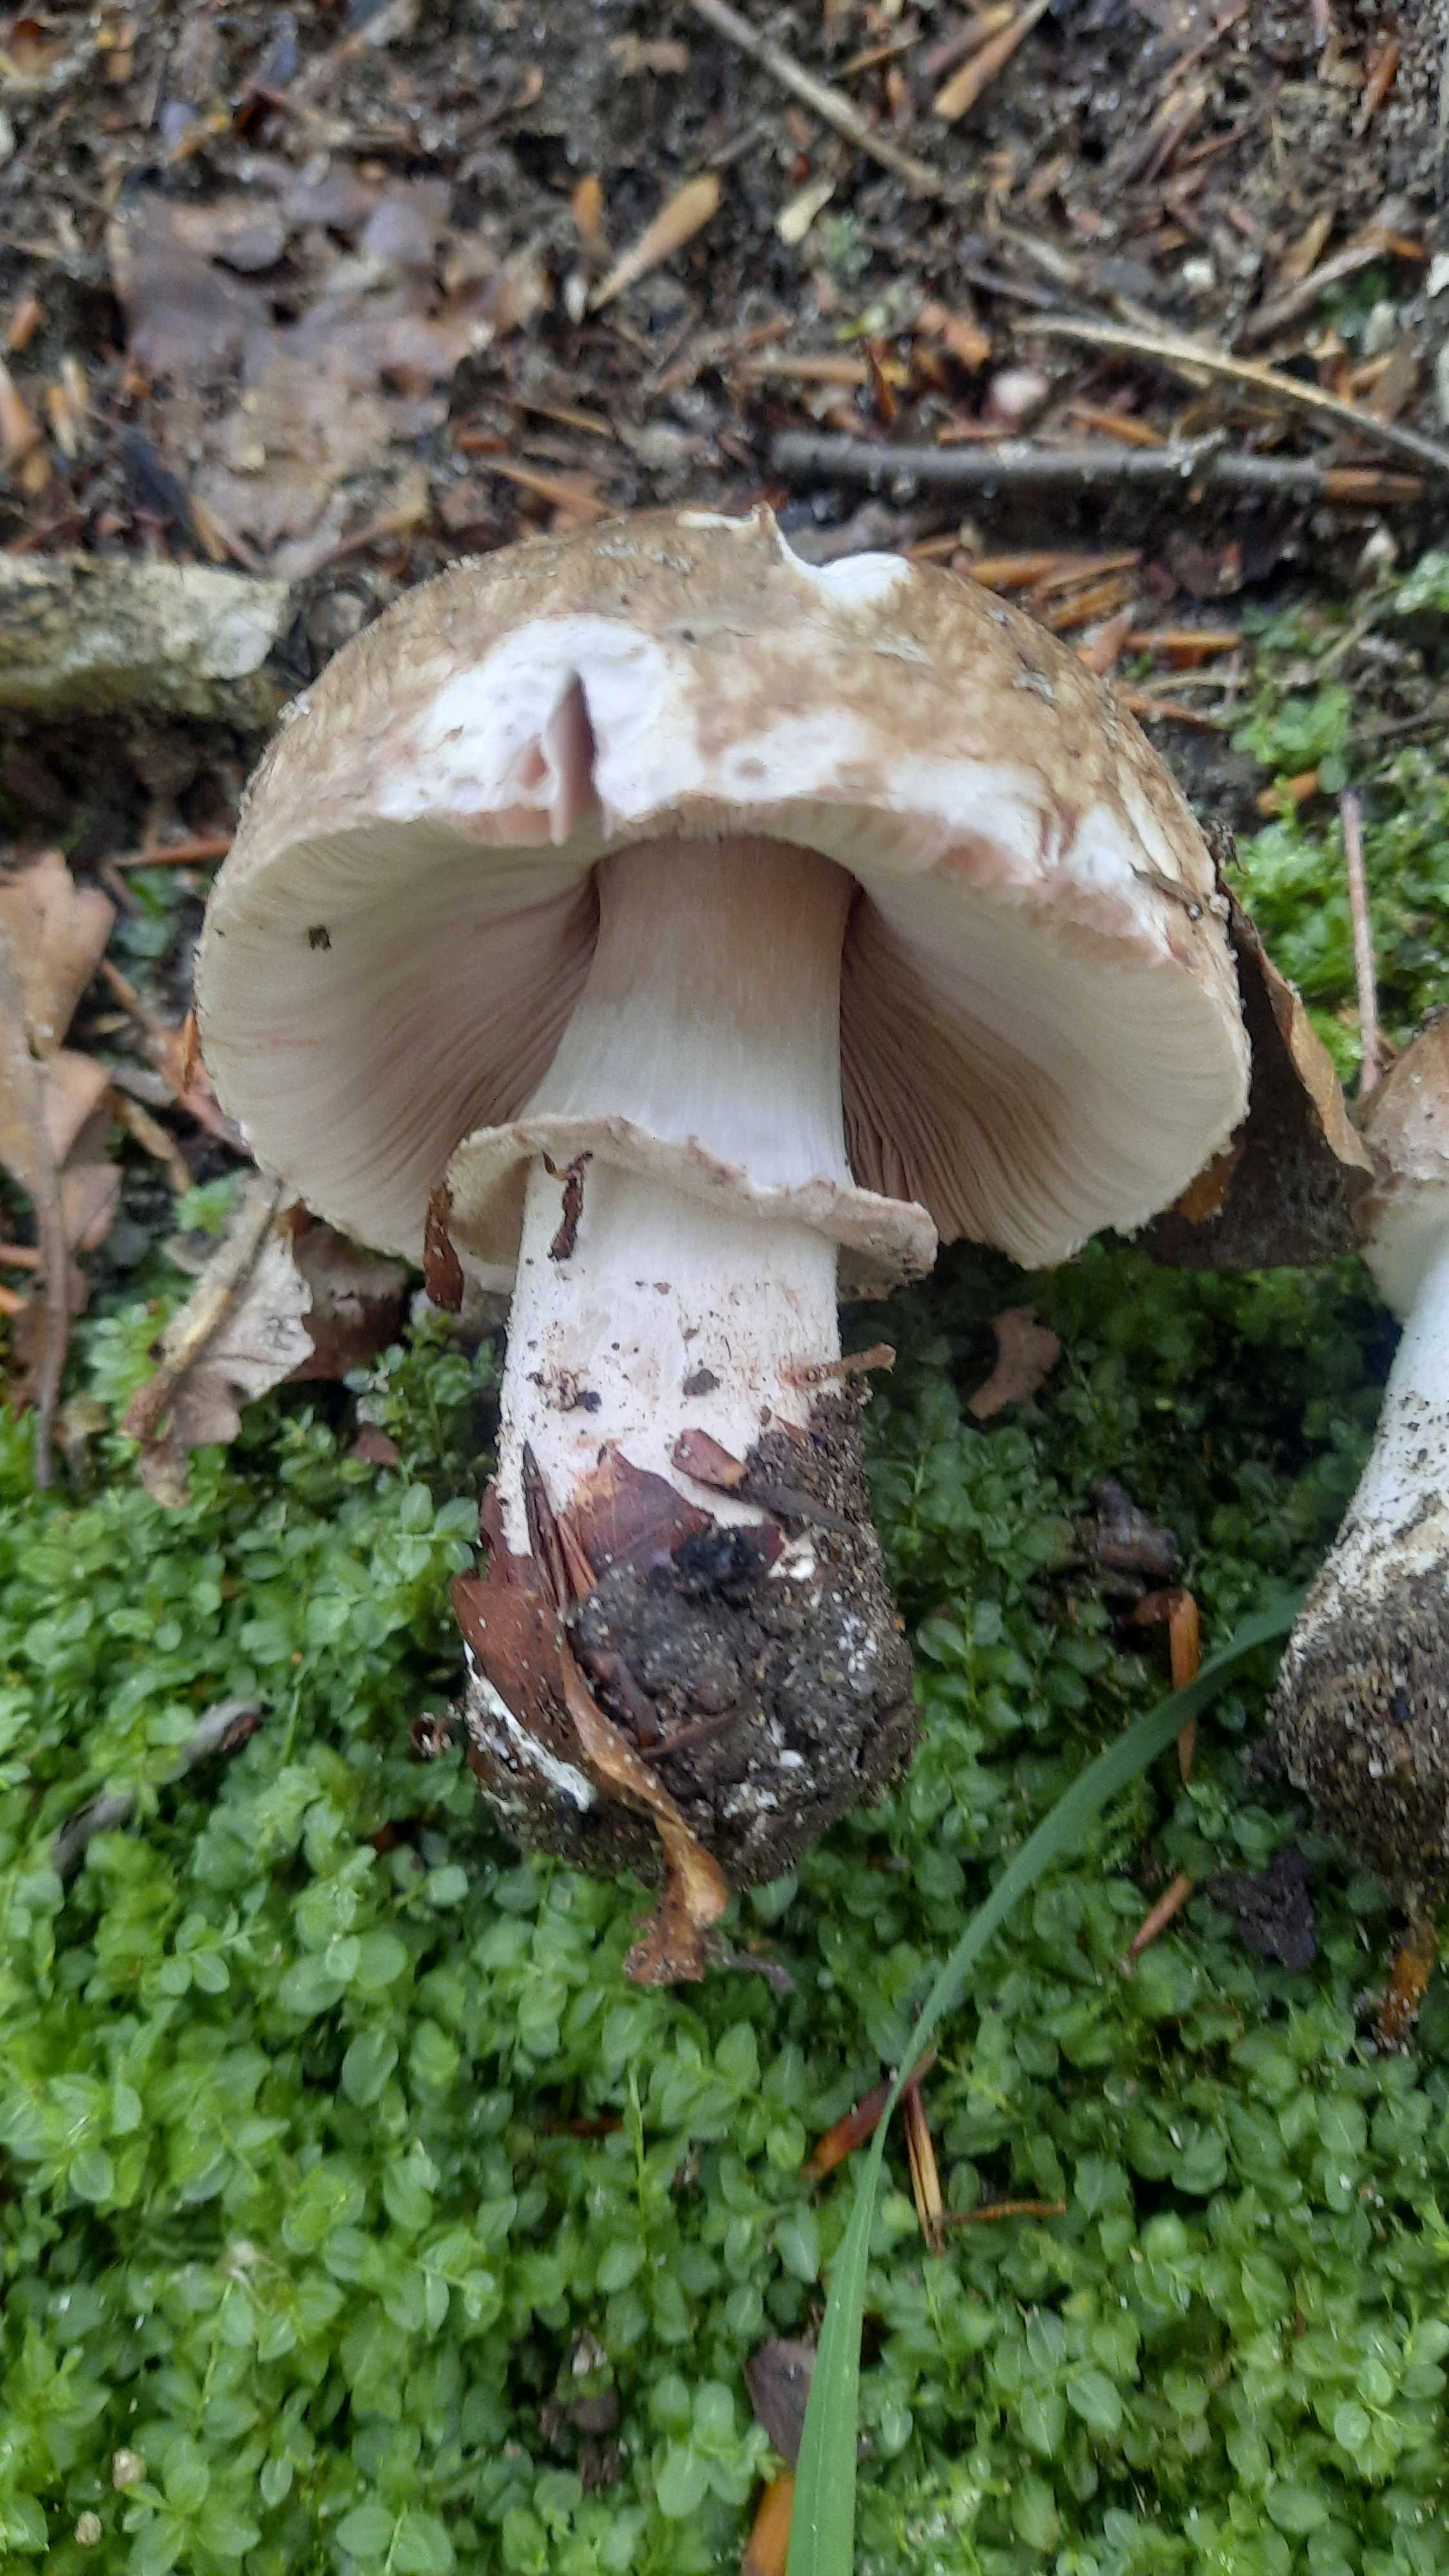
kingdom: Fungi
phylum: Basidiomycota
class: Agaricomycetes
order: Agaricales
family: Agaricaceae
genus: Agaricus
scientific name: Agaricus
